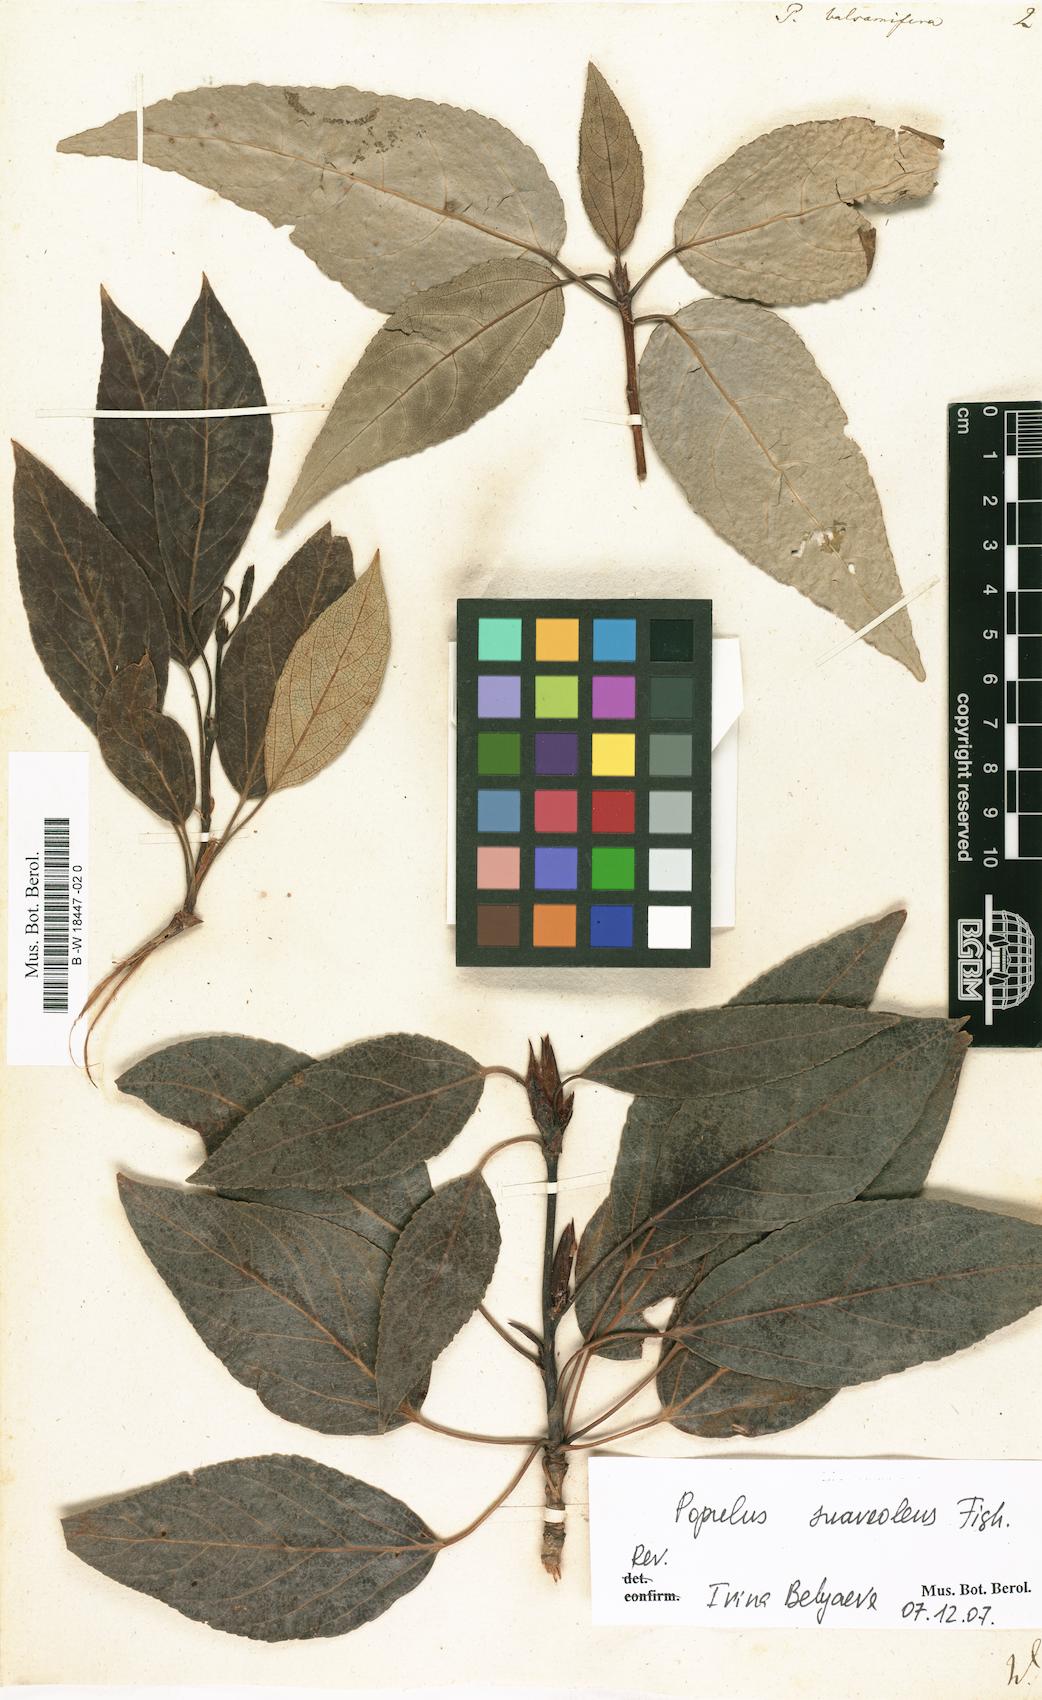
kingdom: Plantae
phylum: Tracheophyta
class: Magnoliopsida
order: Malpighiales
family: Salicaceae
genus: Populus
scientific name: Populus balsamifera
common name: Balsam poplar
